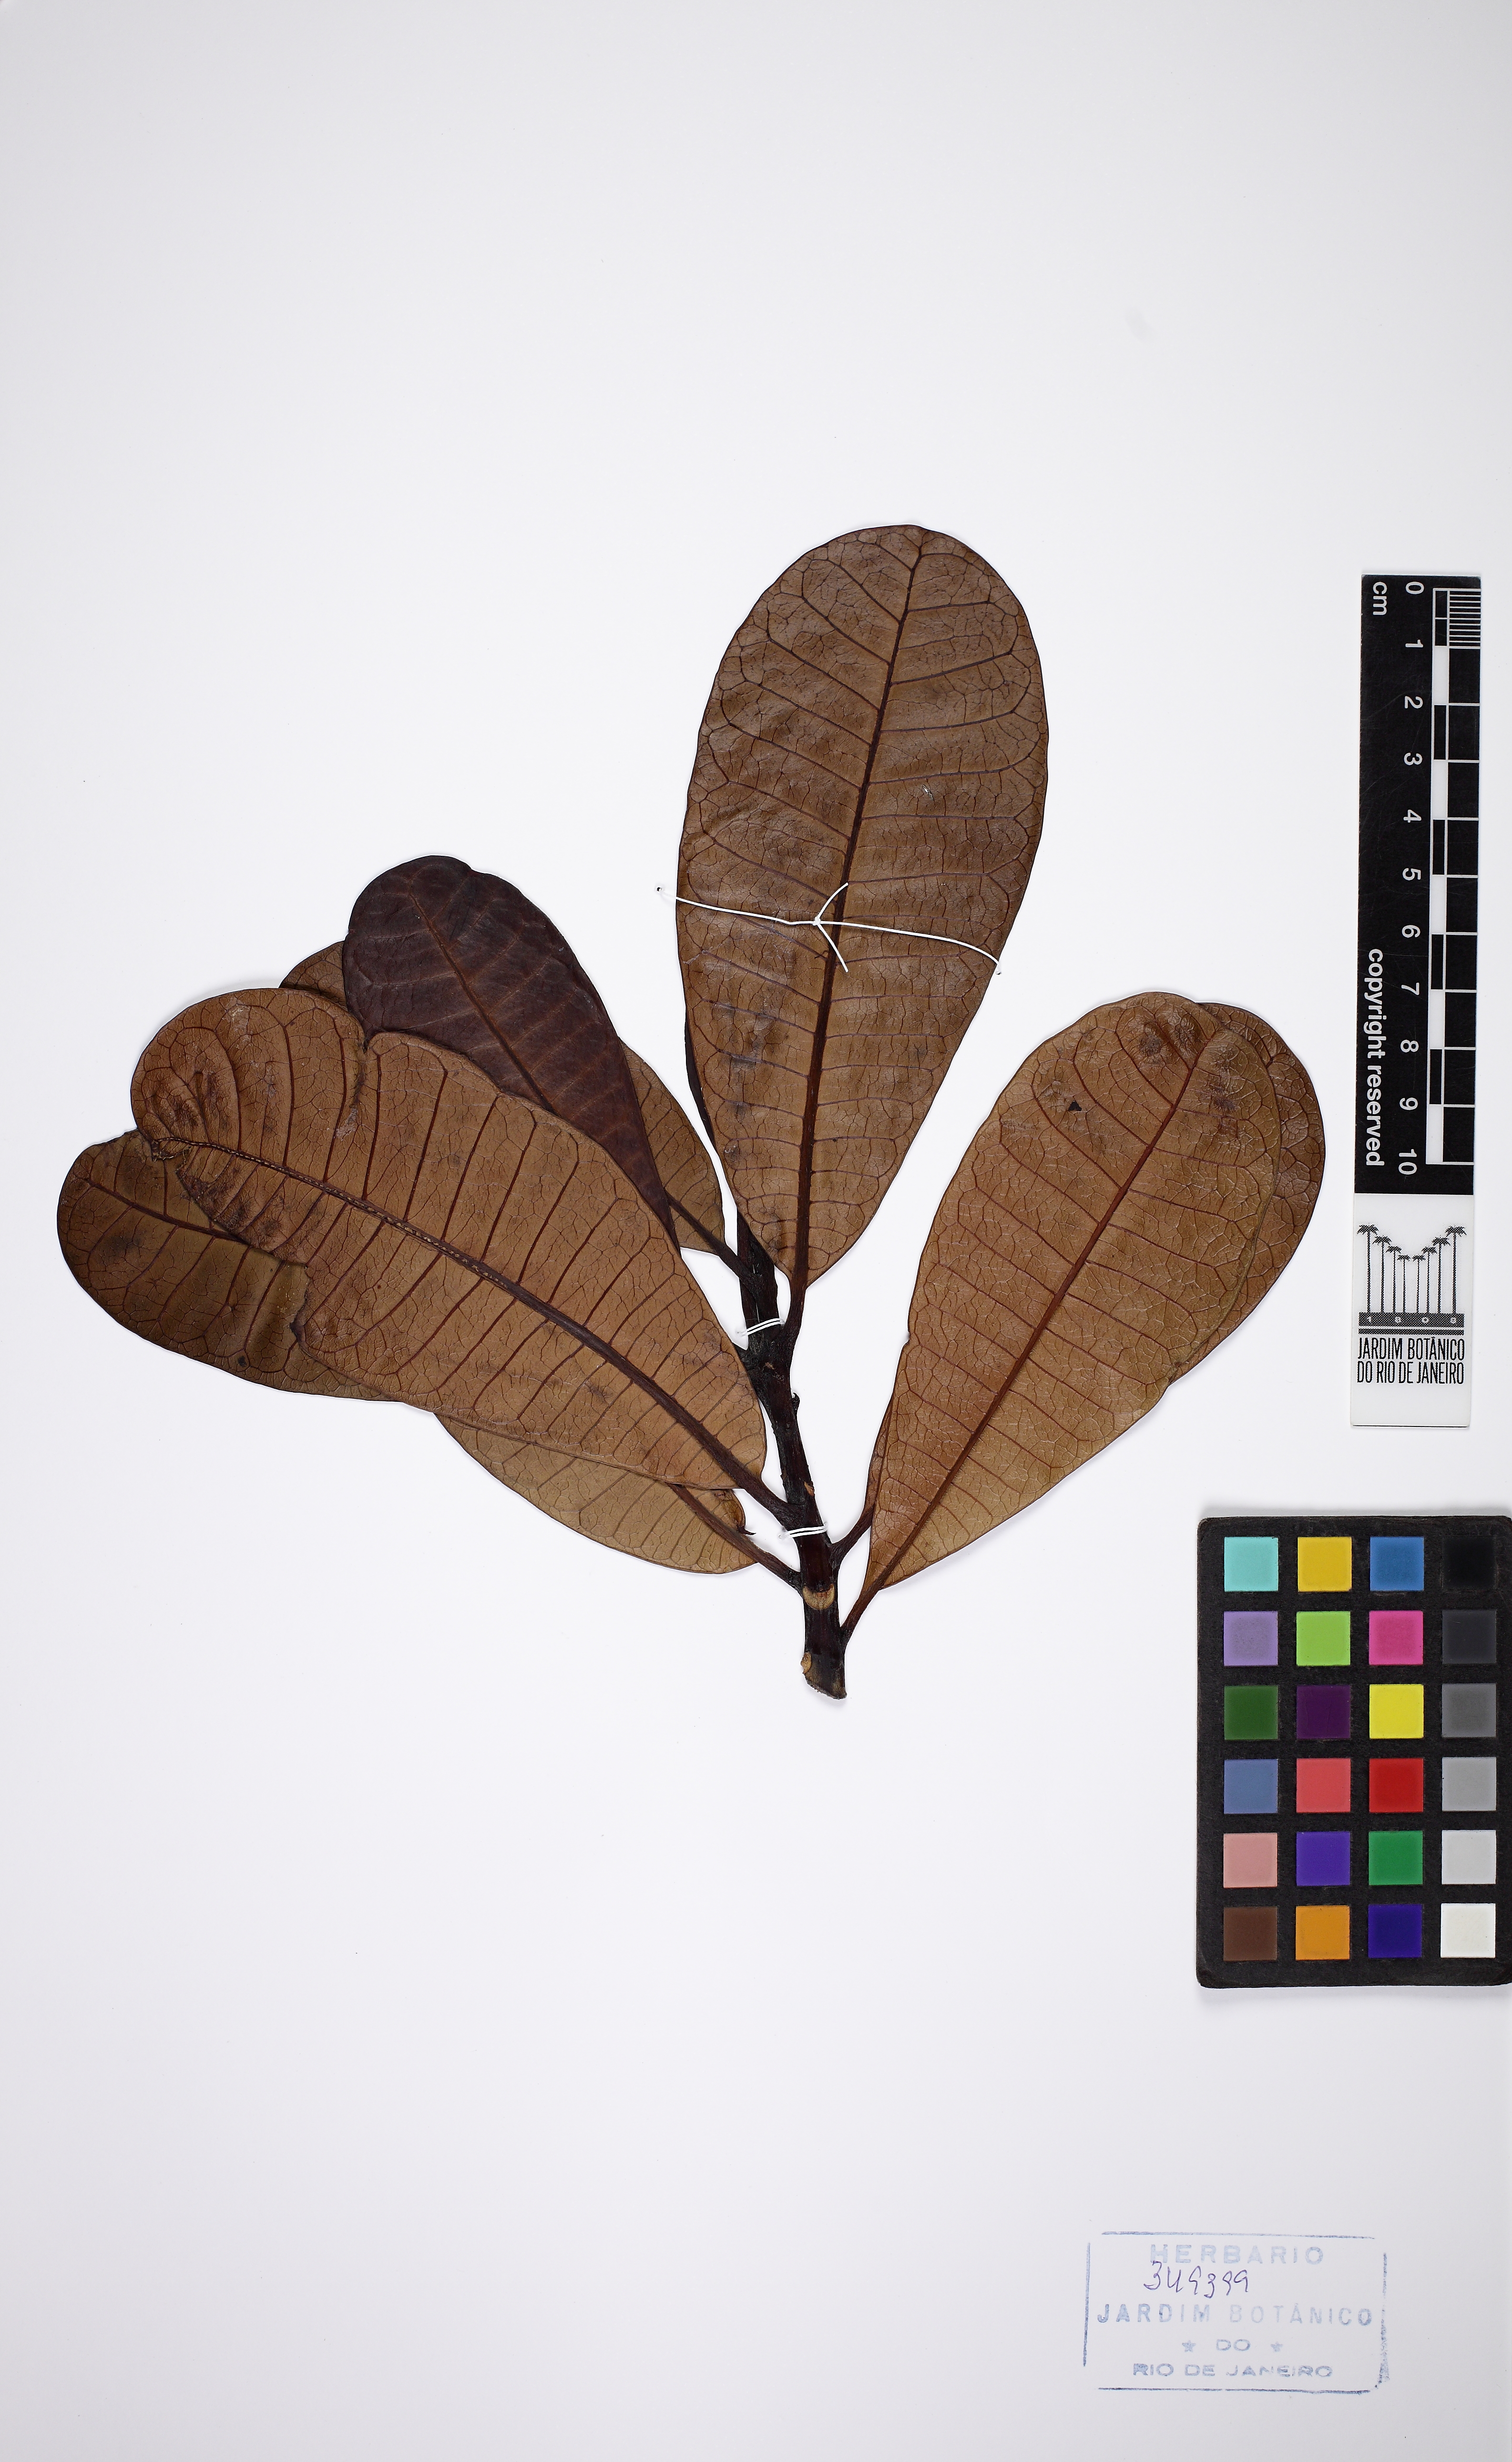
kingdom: Plantae
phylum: Tracheophyta
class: Magnoliopsida
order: Gentianales
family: Apocynaceae
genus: Himatanthus
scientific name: Himatanthus
